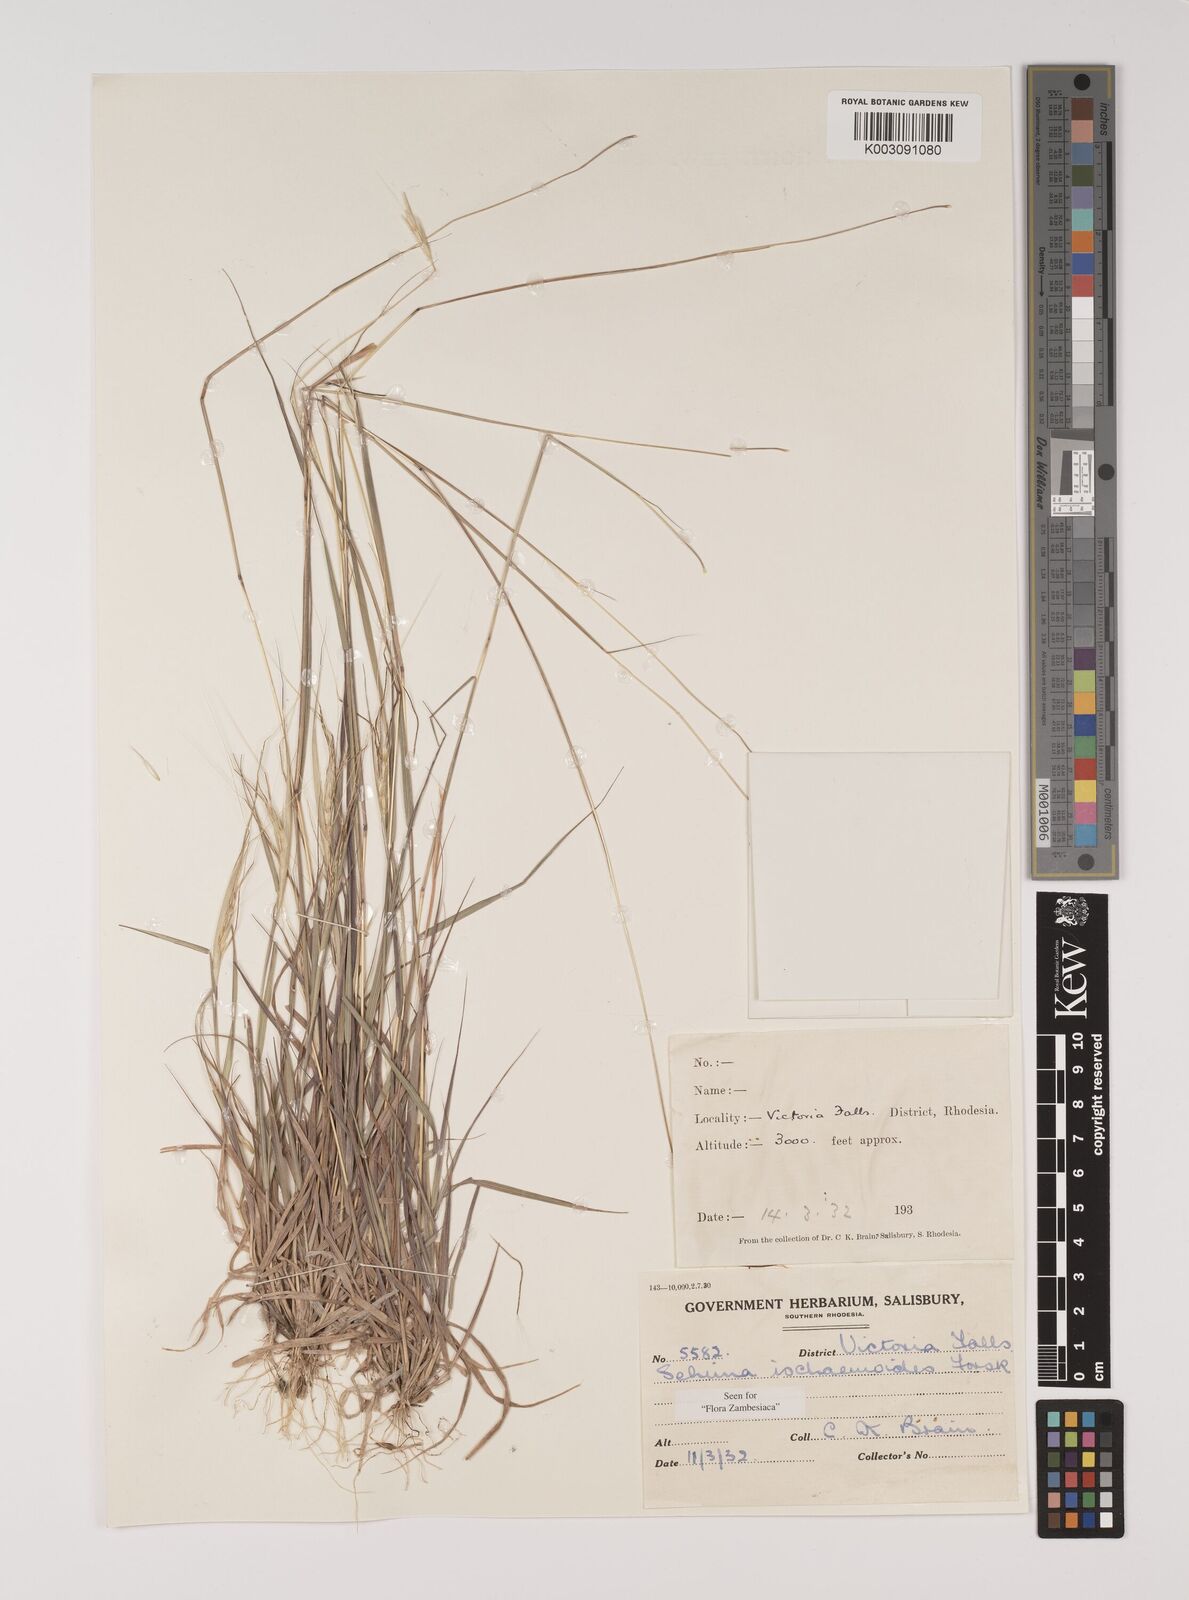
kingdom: Plantae
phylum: Tracheophyta
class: Liliopsida
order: Poales
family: Poaceae
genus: Sehima
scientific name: Sehima ischaemoides
